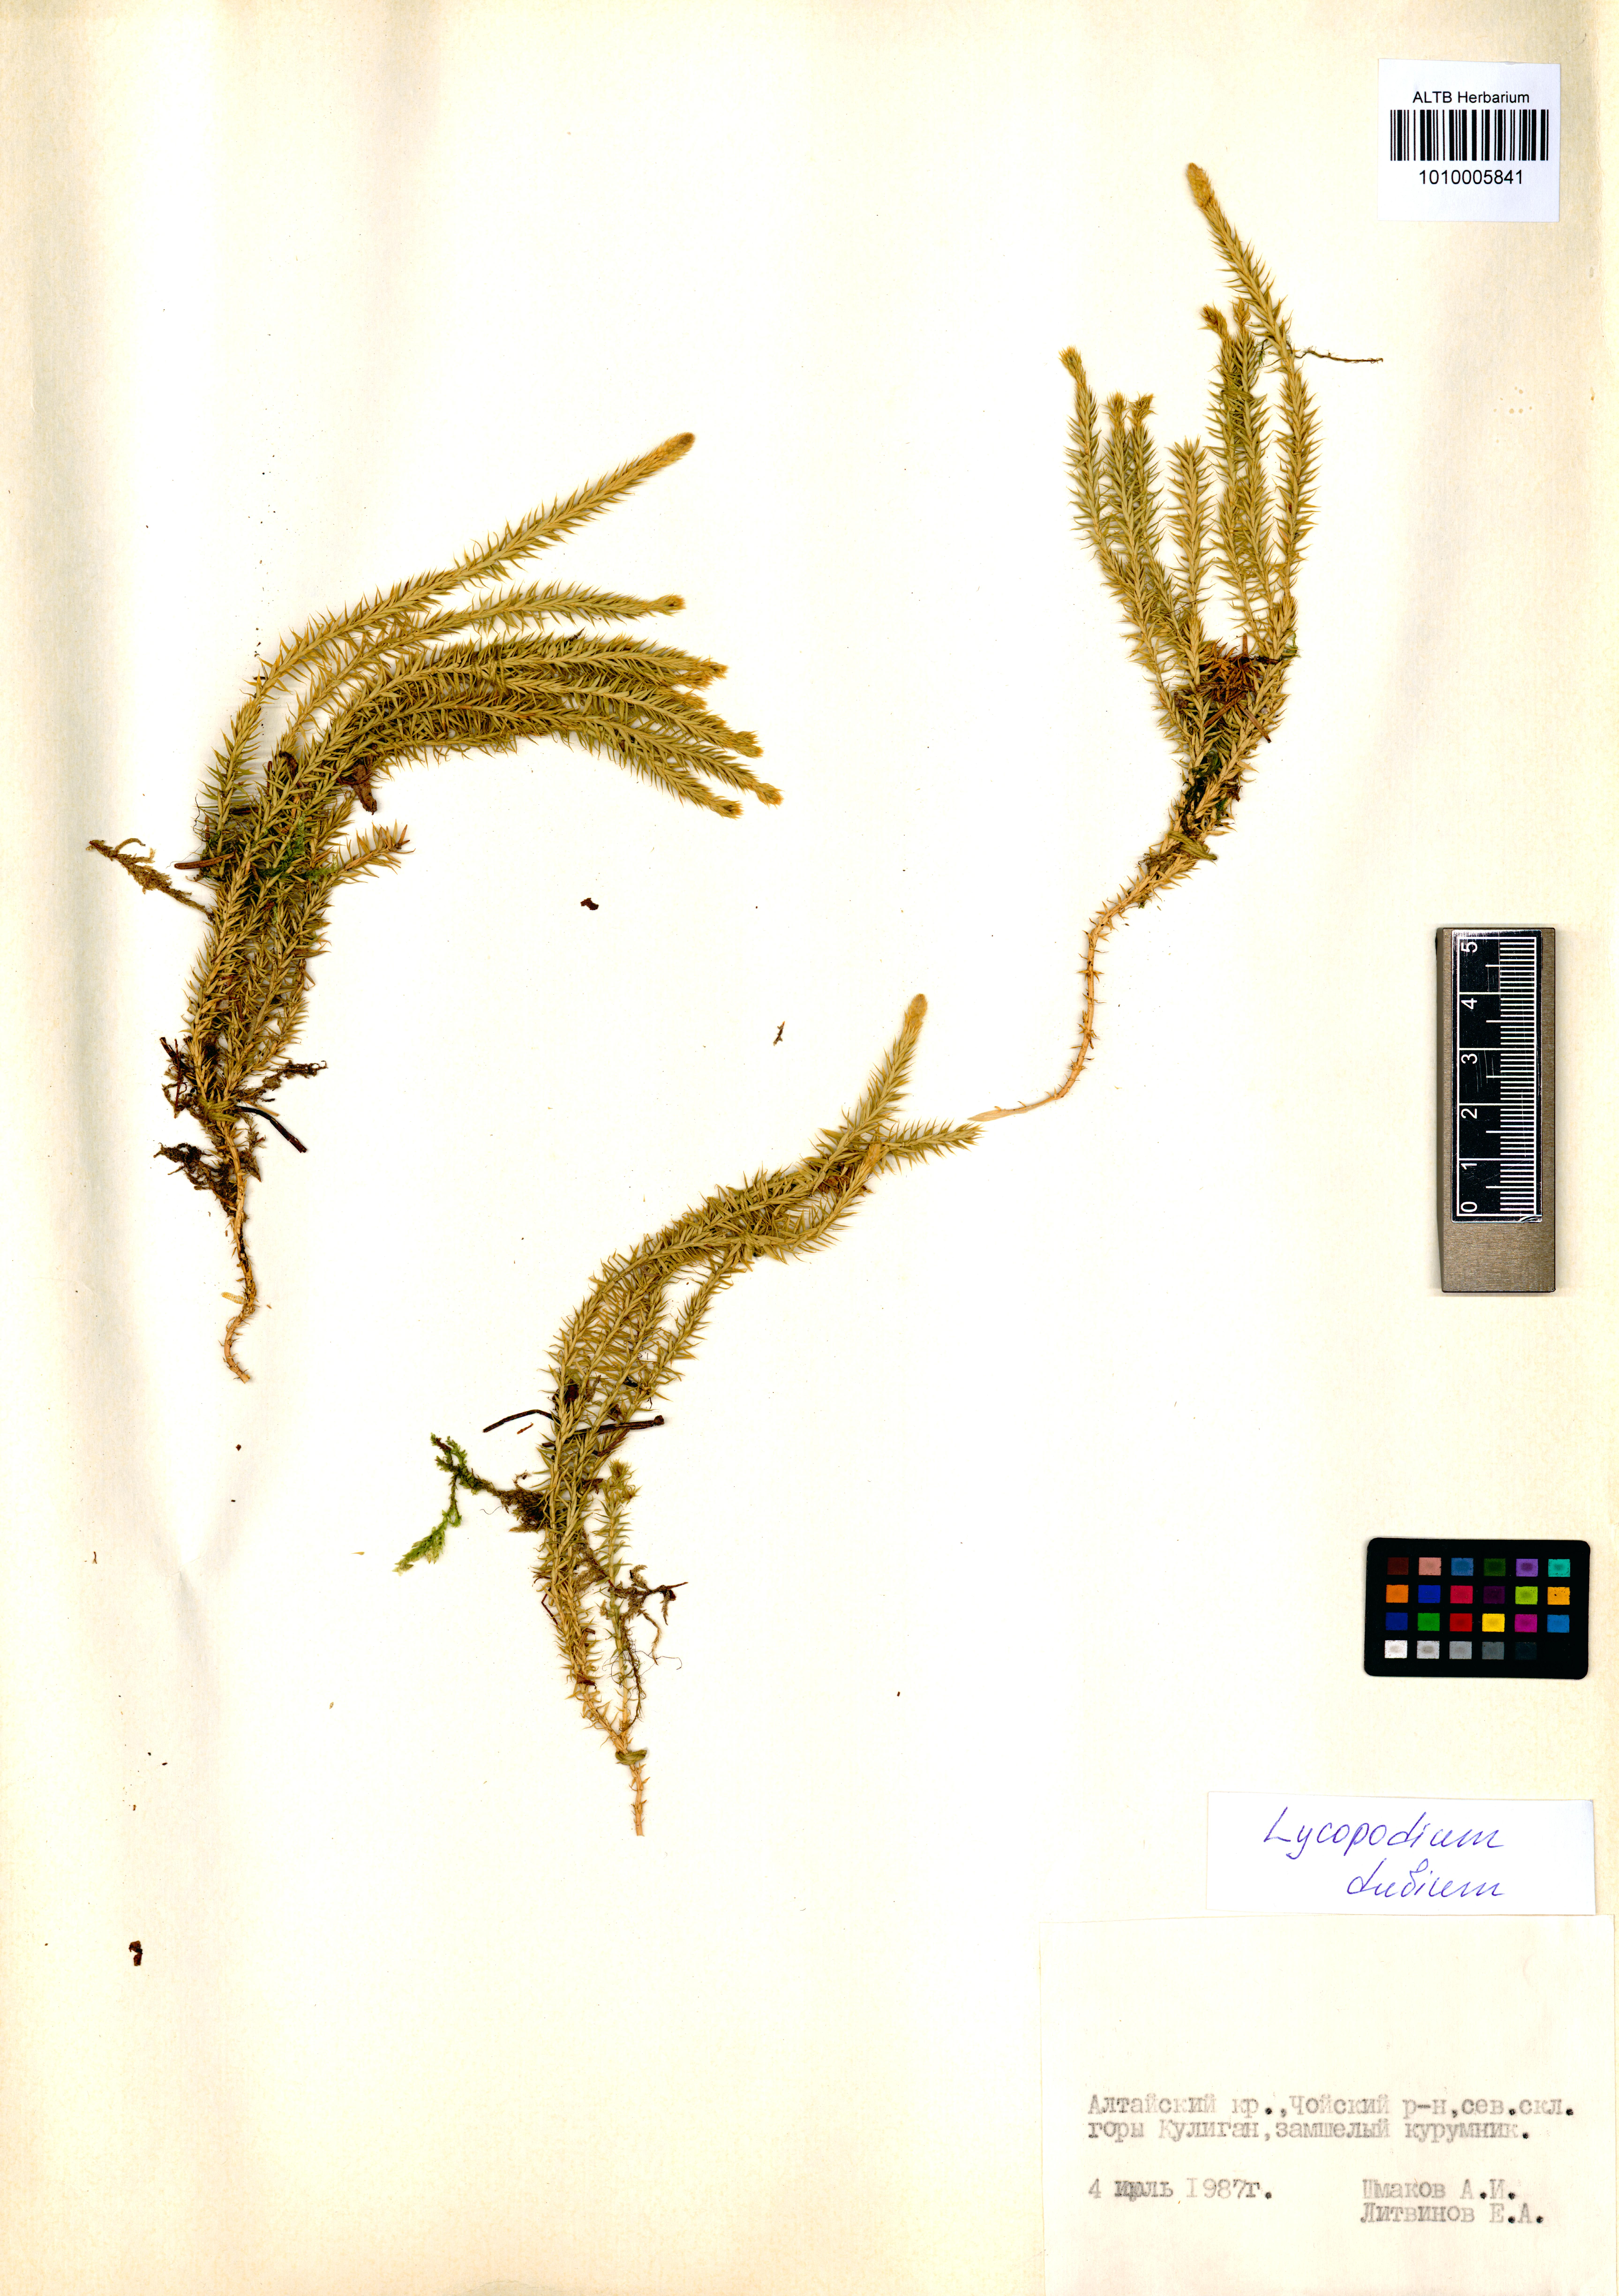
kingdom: Plantae
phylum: Tracheophyta
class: Lycopodiopsida
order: Lycopodiales
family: Lycopodiaceae
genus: Spinulum
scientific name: Spinulum annotinum
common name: Interrupted club-moss
